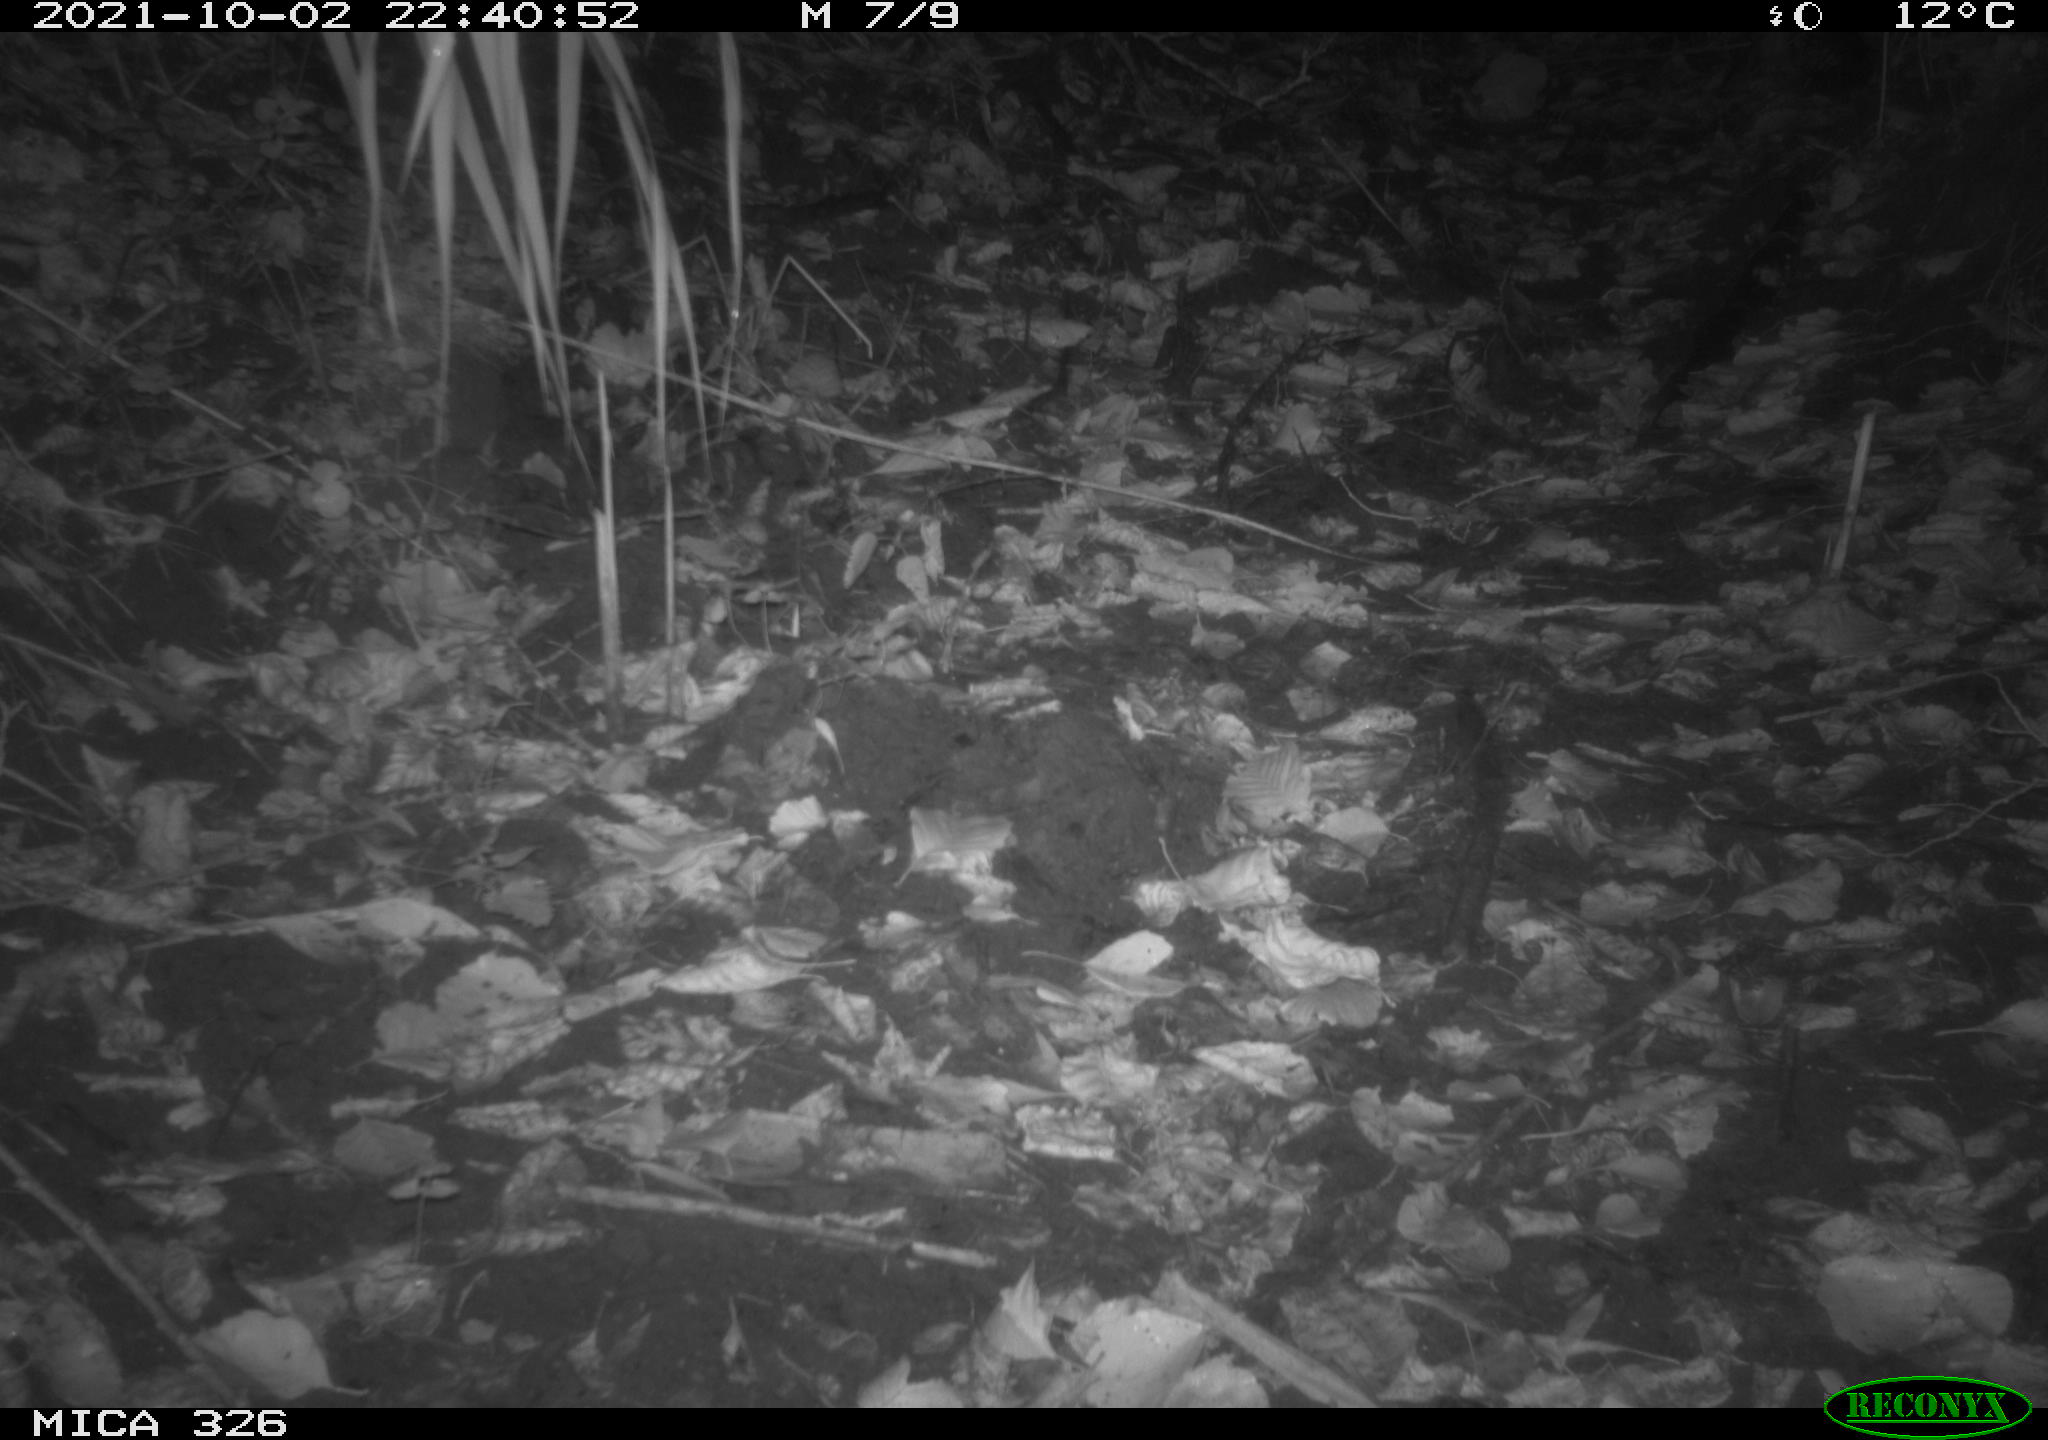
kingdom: Animalia
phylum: Chordata
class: Mammalia
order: Rodentia
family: Cricetidae
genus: Ondatra
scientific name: Ondatra zibethicus
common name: Muskrat
